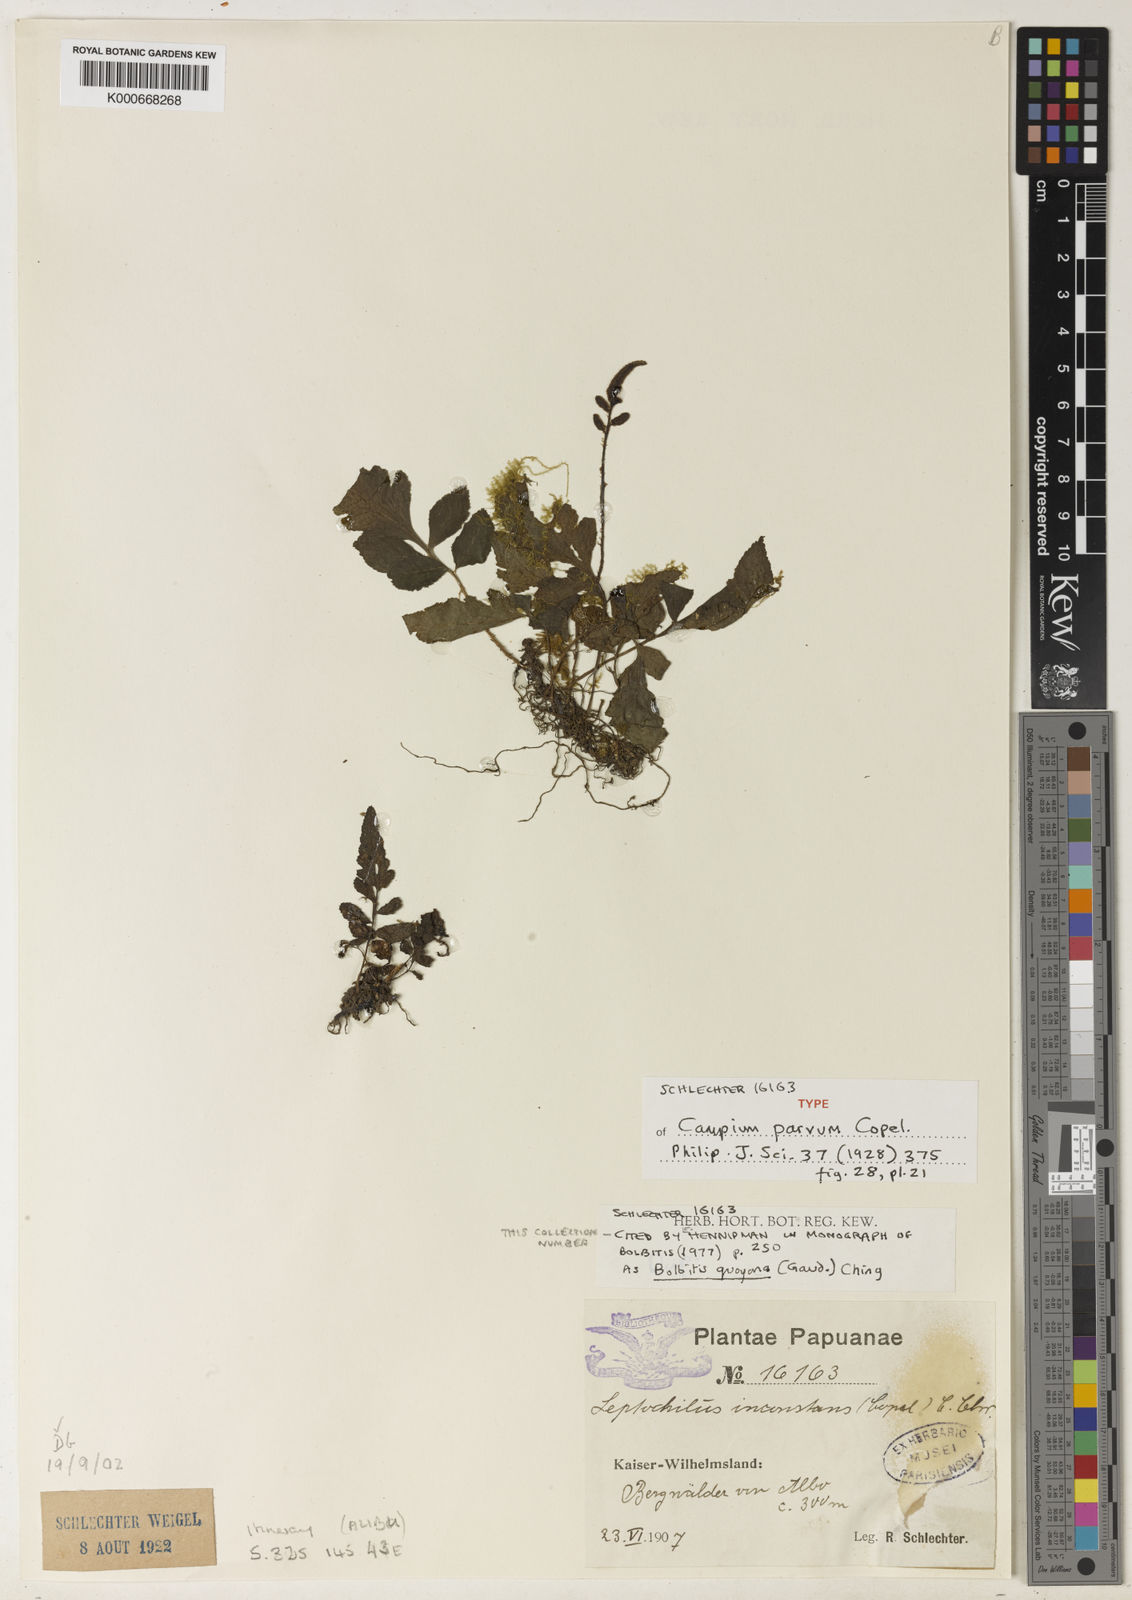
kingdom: Plantae
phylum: Tracheophyta
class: Polypodiopsida
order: Polypodiales
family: Dryopteridaceae
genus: Bolbitis
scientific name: Bolbitis quoyana
